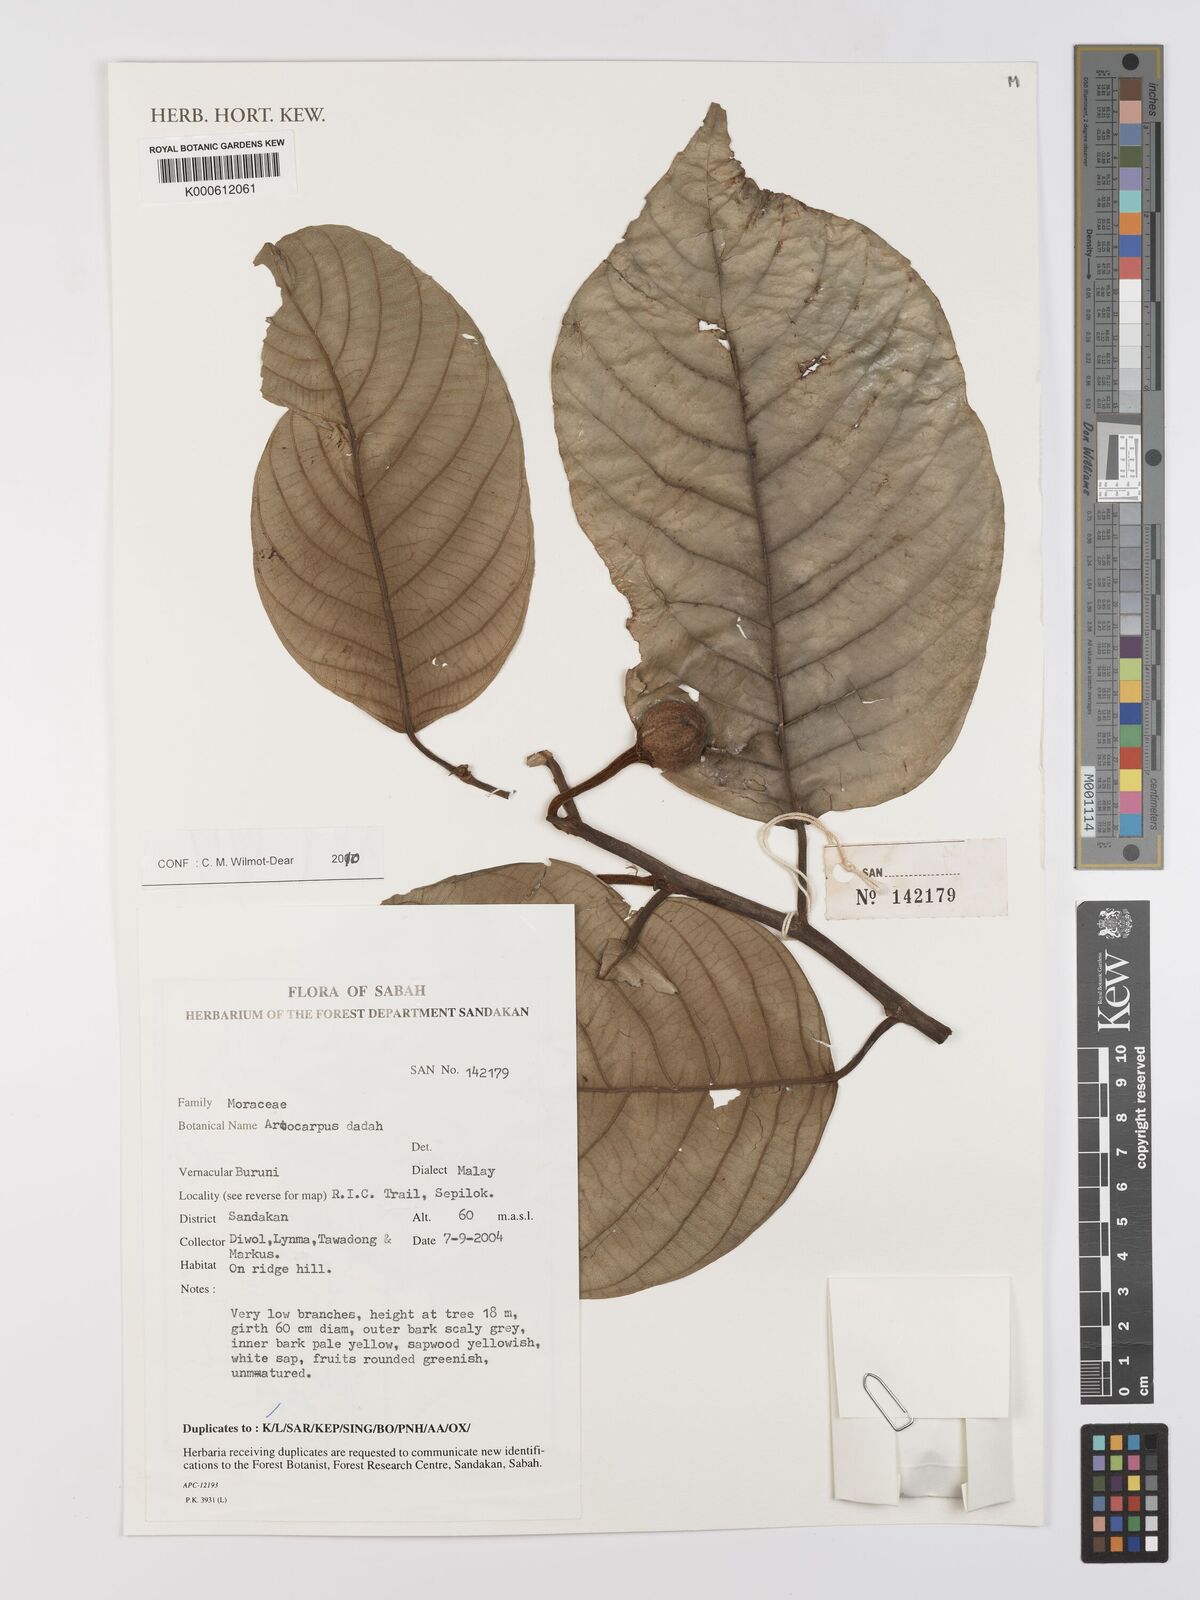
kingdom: Plantae
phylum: Tracheophyta
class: Magnoliopsida
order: Rosales
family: Moraceae
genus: Artocarpus
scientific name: Artocarpus lacucha
